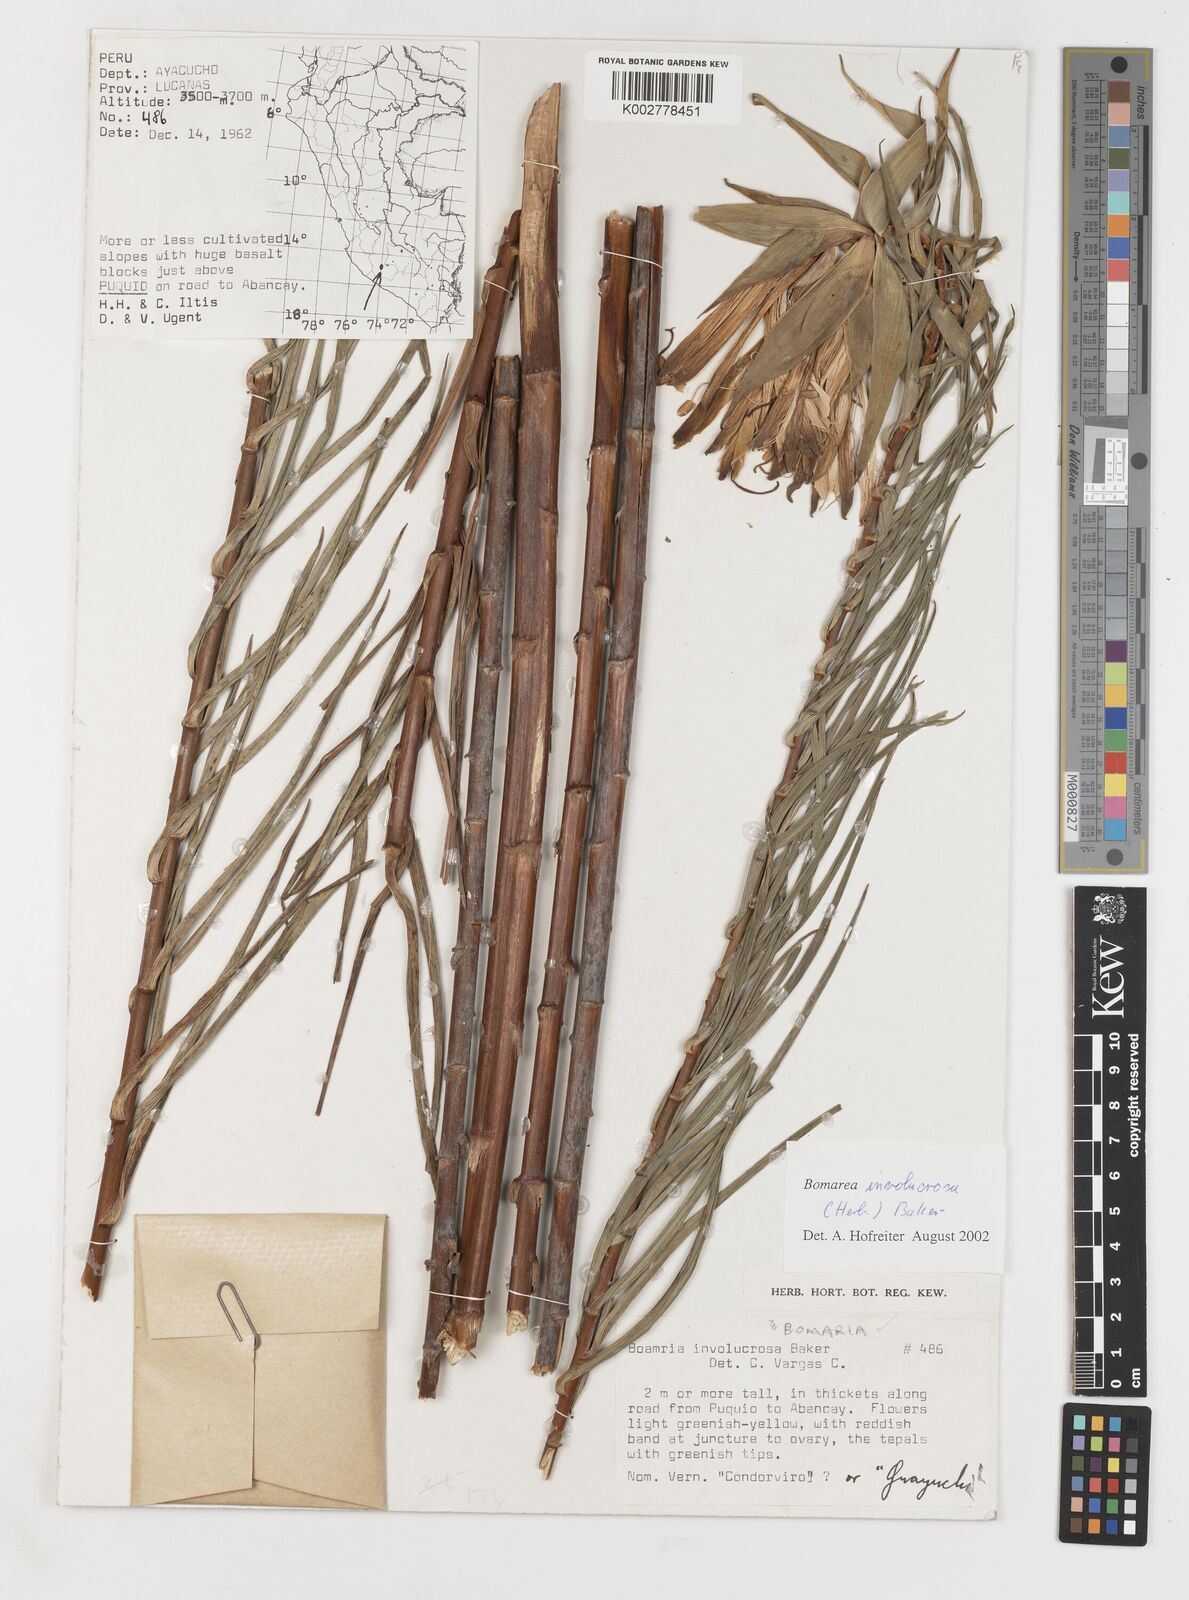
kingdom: Plantae
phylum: Tracheophyta
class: Liliopsida
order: Liliales
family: Alstroemeriaceae
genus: Bomarea
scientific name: Bomarea involucrosa
